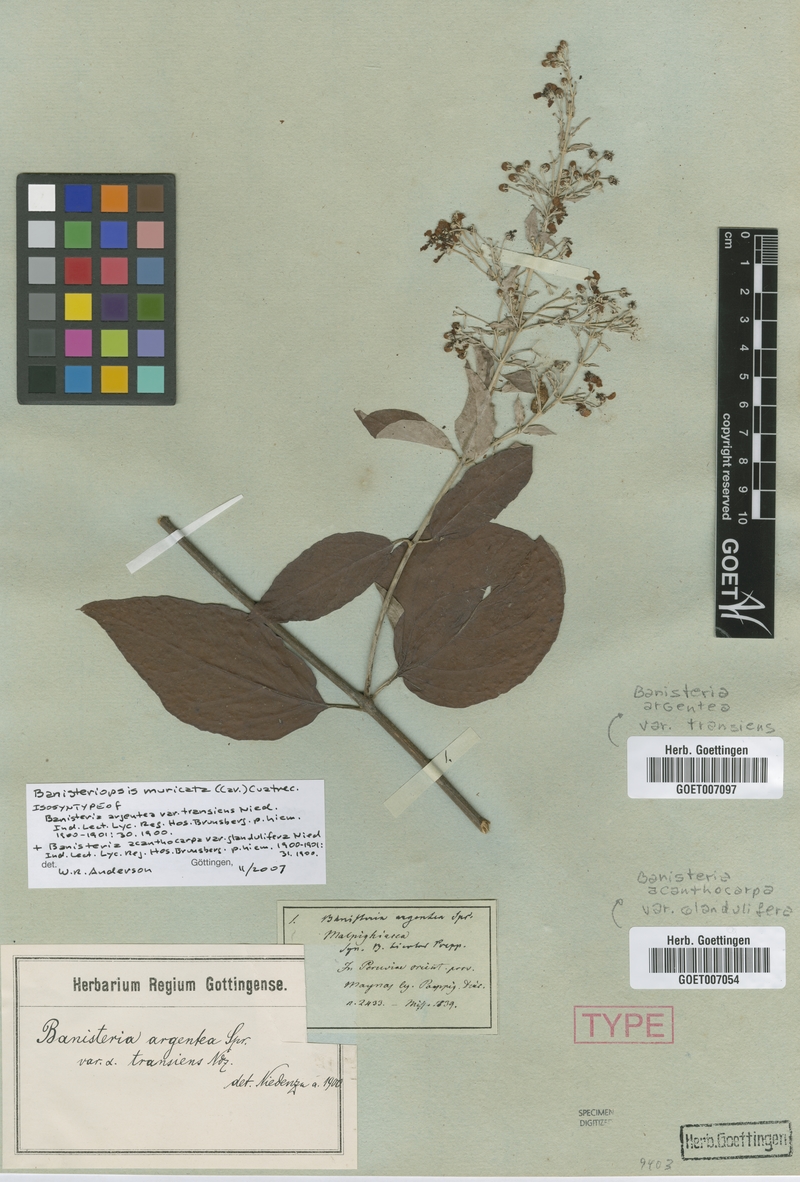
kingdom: Plantae
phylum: Tracheophyta
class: Magnoliopsida
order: Malpighiales
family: Malpighiaceae
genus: Banisteriopsis
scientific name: Banisteriopsis muricata
